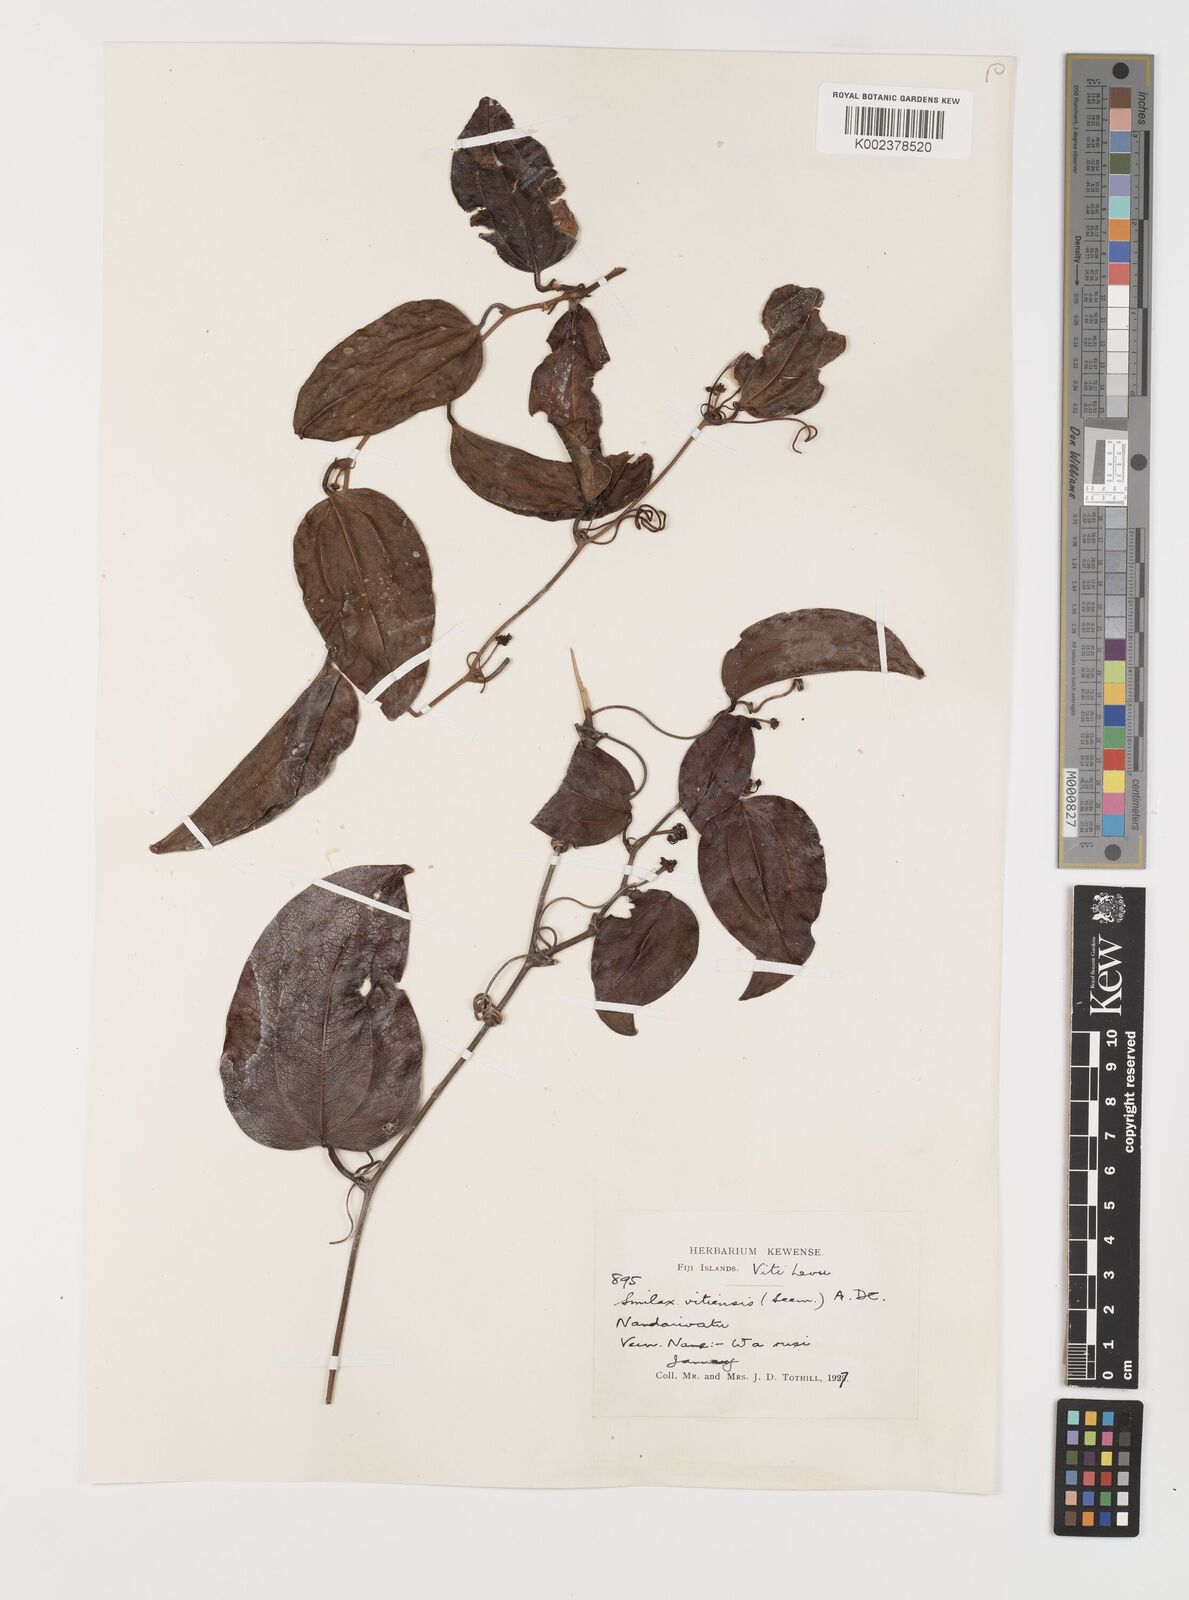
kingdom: Plantae
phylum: Tracheophyta
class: Liliopsida
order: Liliales
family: Smilacaceae
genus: Smilax
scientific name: Smilax vitiensis
